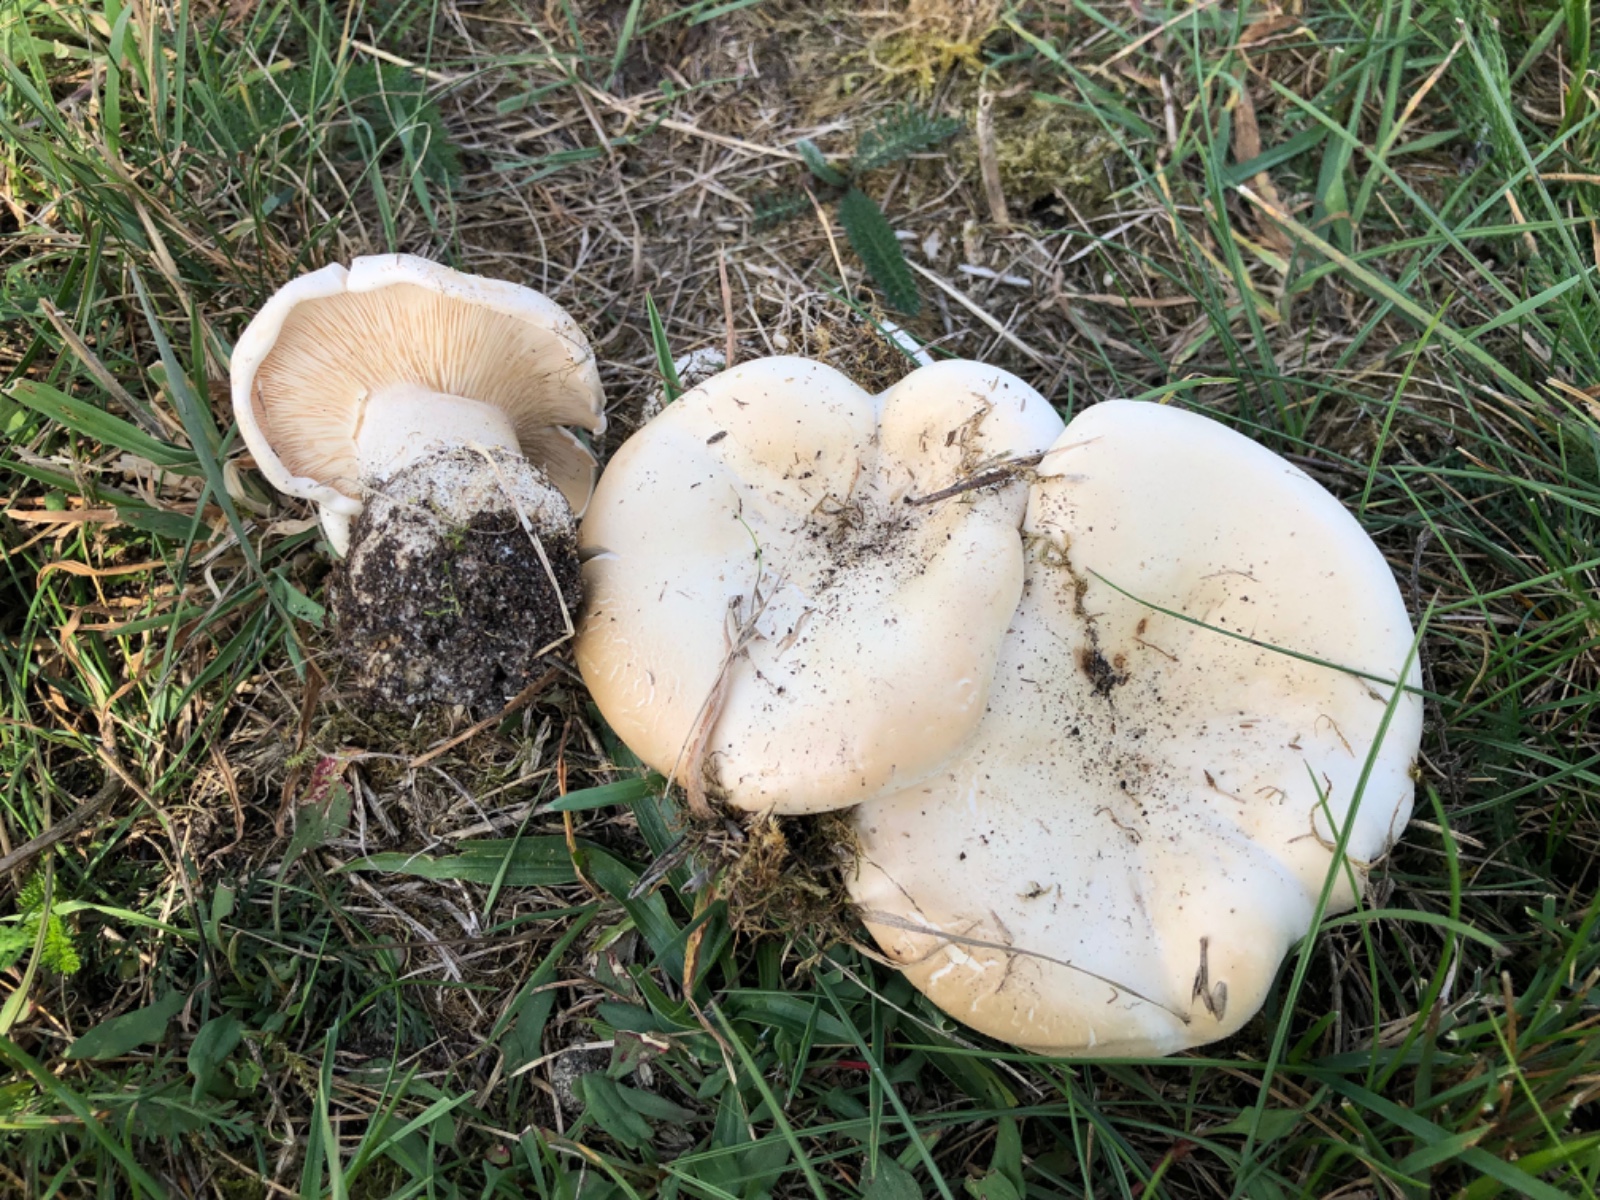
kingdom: Fungi
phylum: Basidiomycota
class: Agaricomycetes
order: Agaricales
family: Tricholomataceae
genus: Aspropaxillus
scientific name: Aspropaxillus giganteus
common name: kæmpe-tragtridderhat
